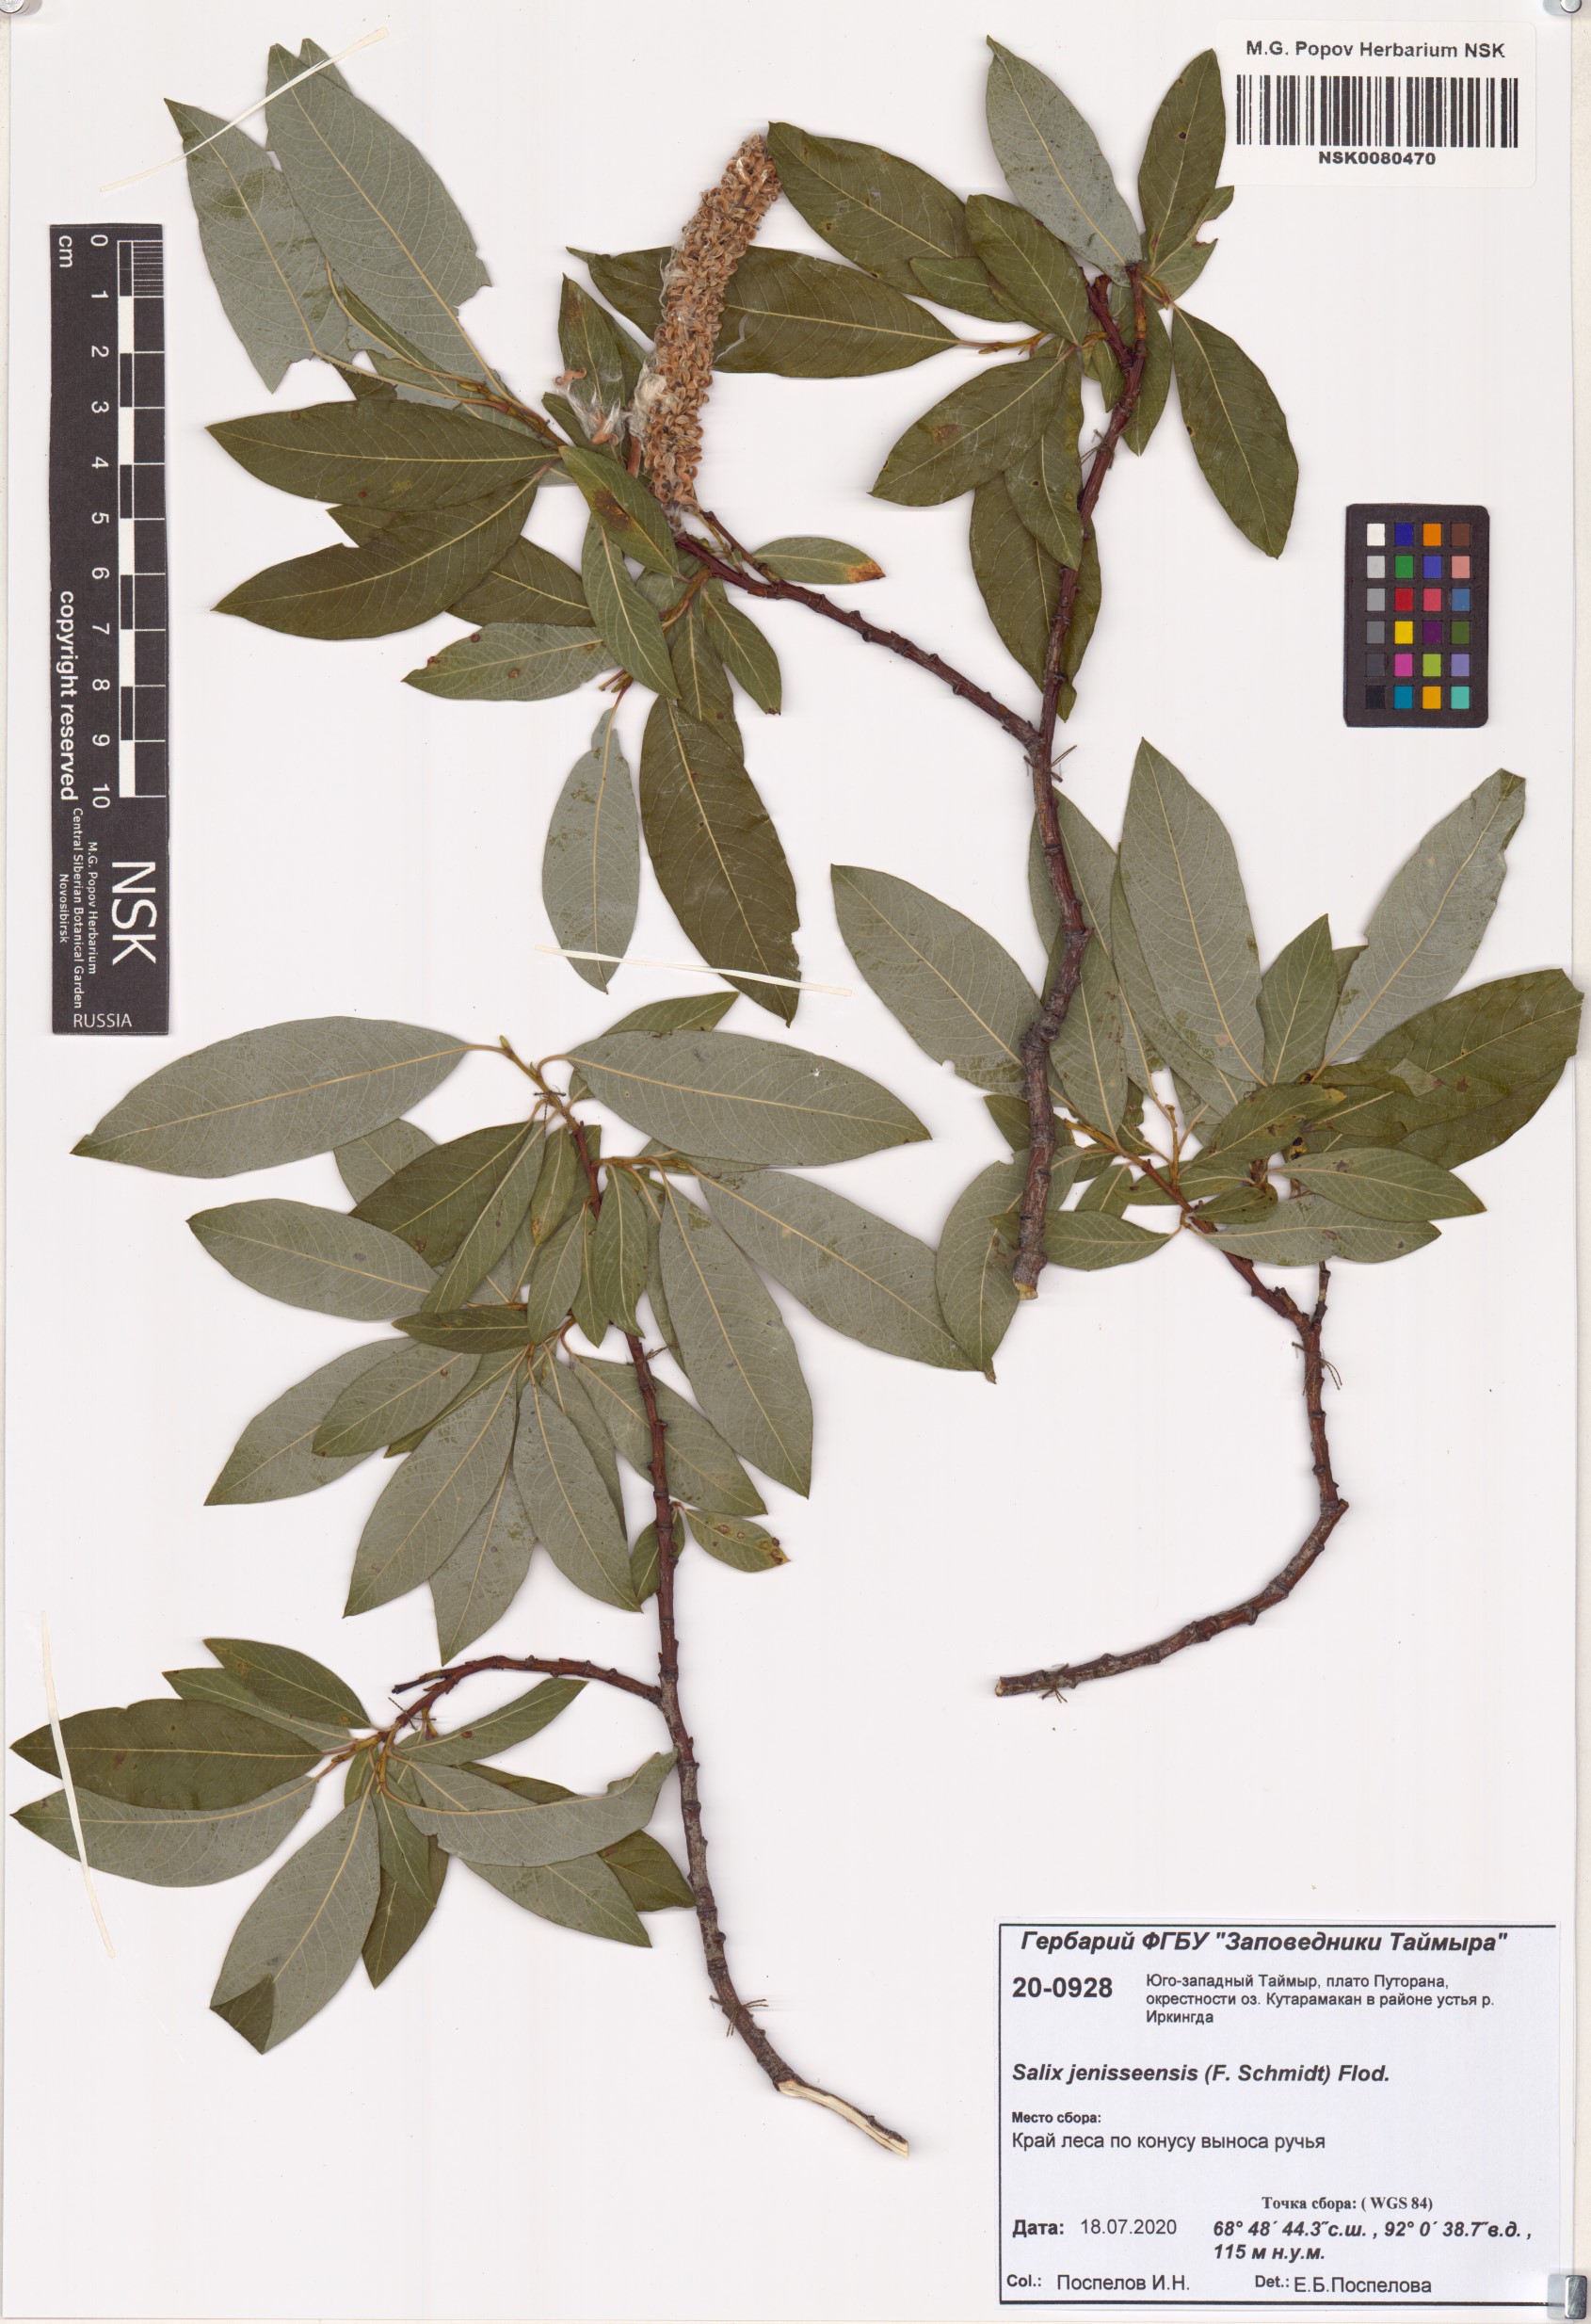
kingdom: Plantae
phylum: Tracheophyta
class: Magnoliopsida
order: Malpighiales
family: Salicaceae
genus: Salix
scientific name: Salix jenisseensis
